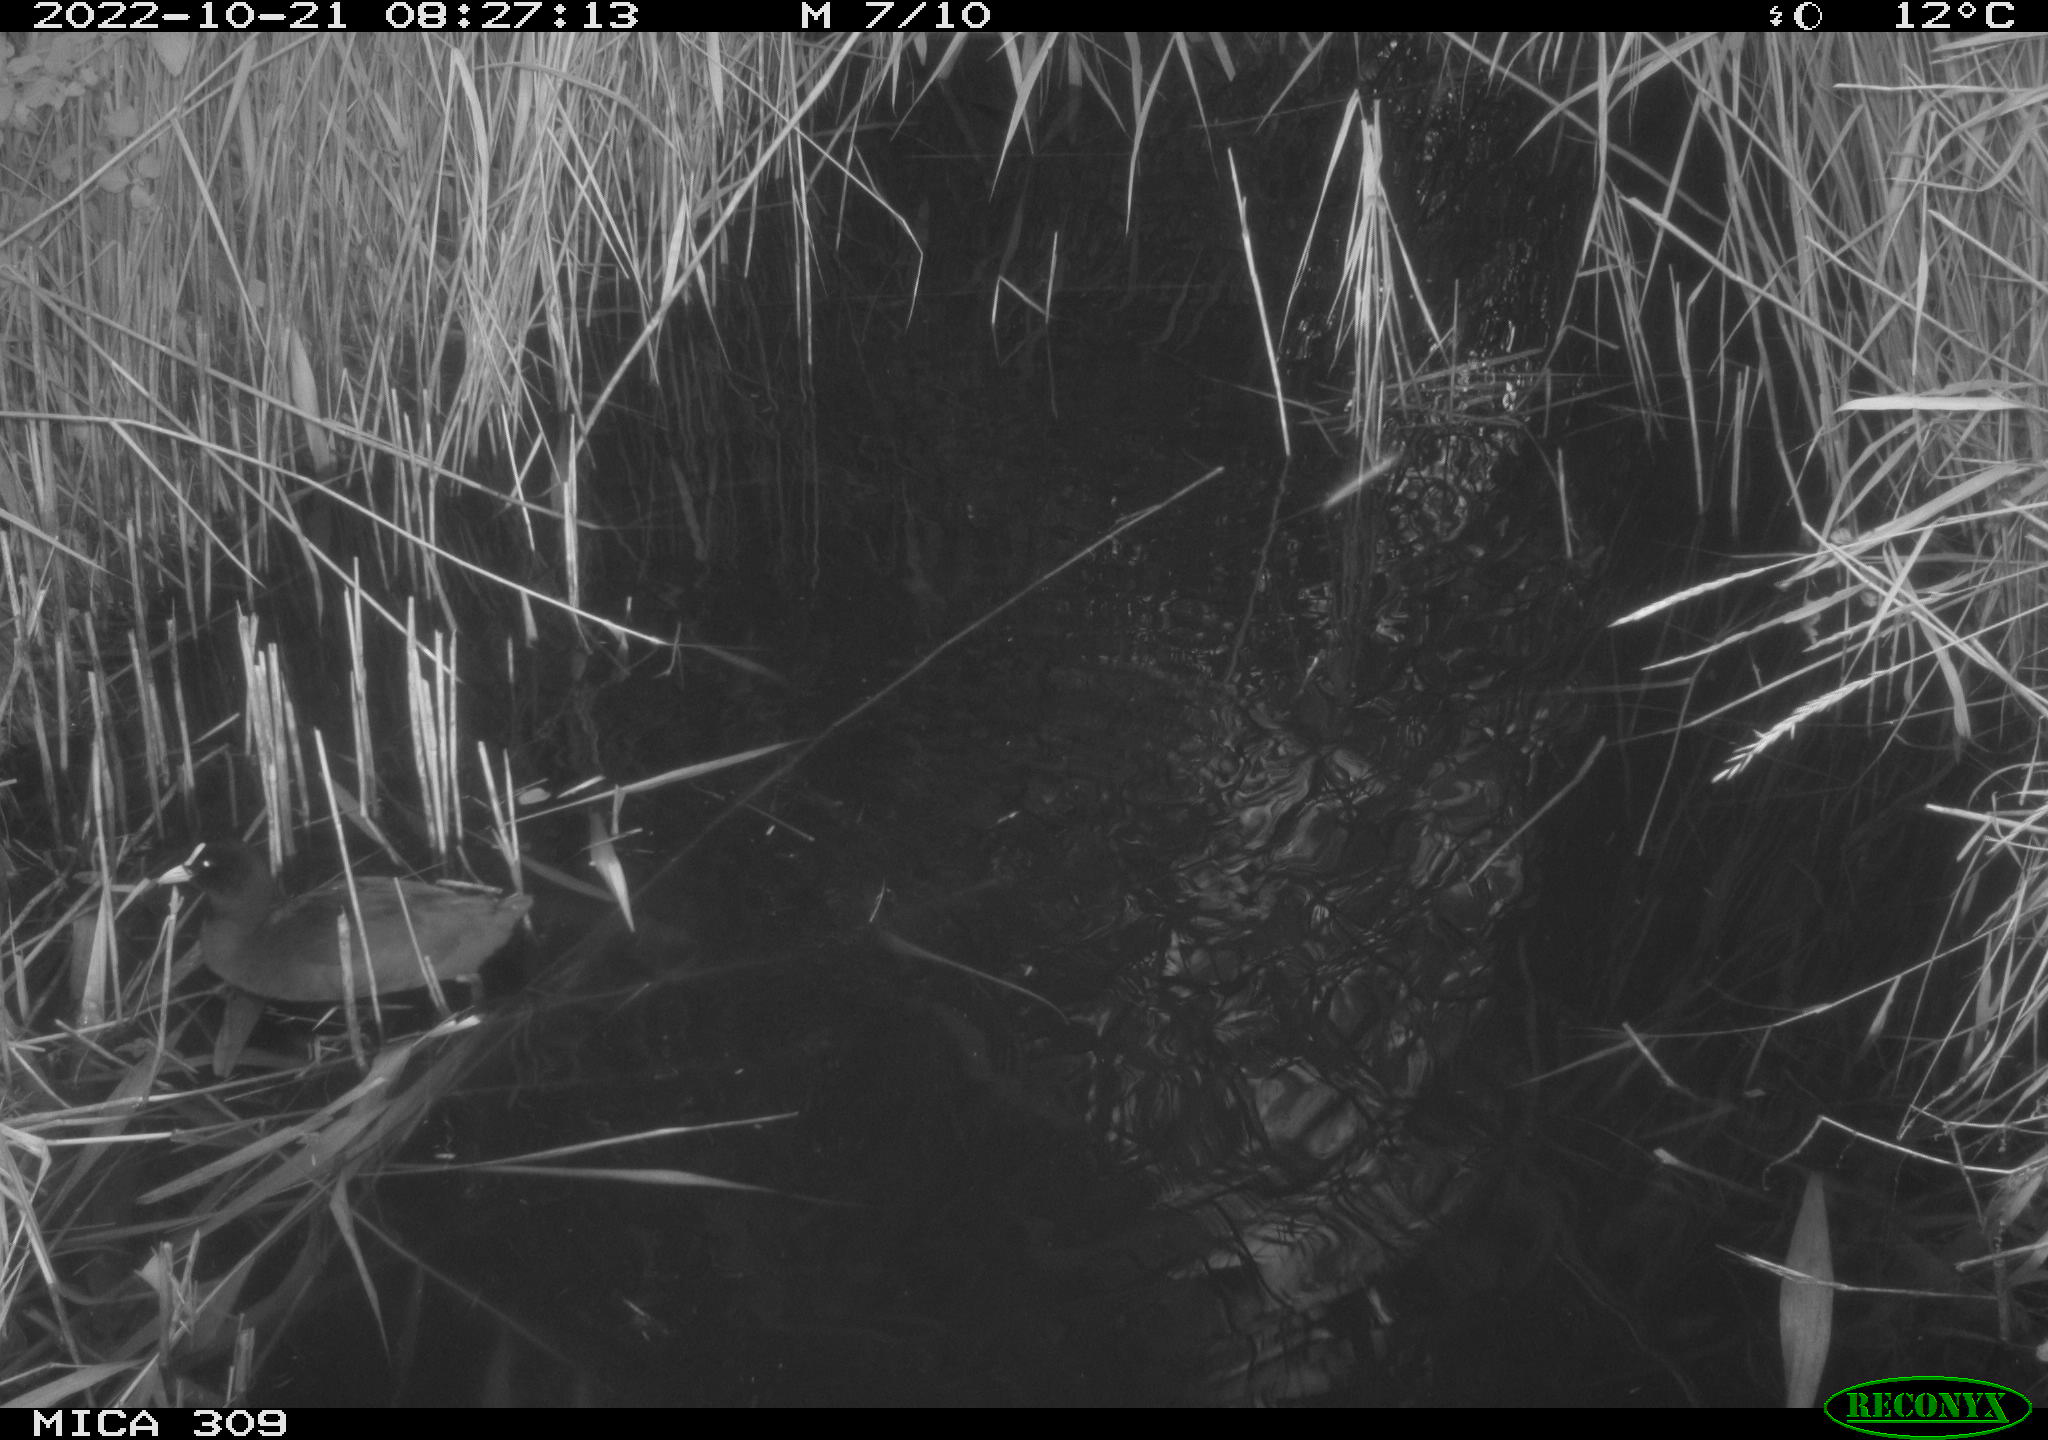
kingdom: Animalia
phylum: Chordata
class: Aves
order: Anseriformes
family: Anatidae
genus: Anas
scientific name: Anas
